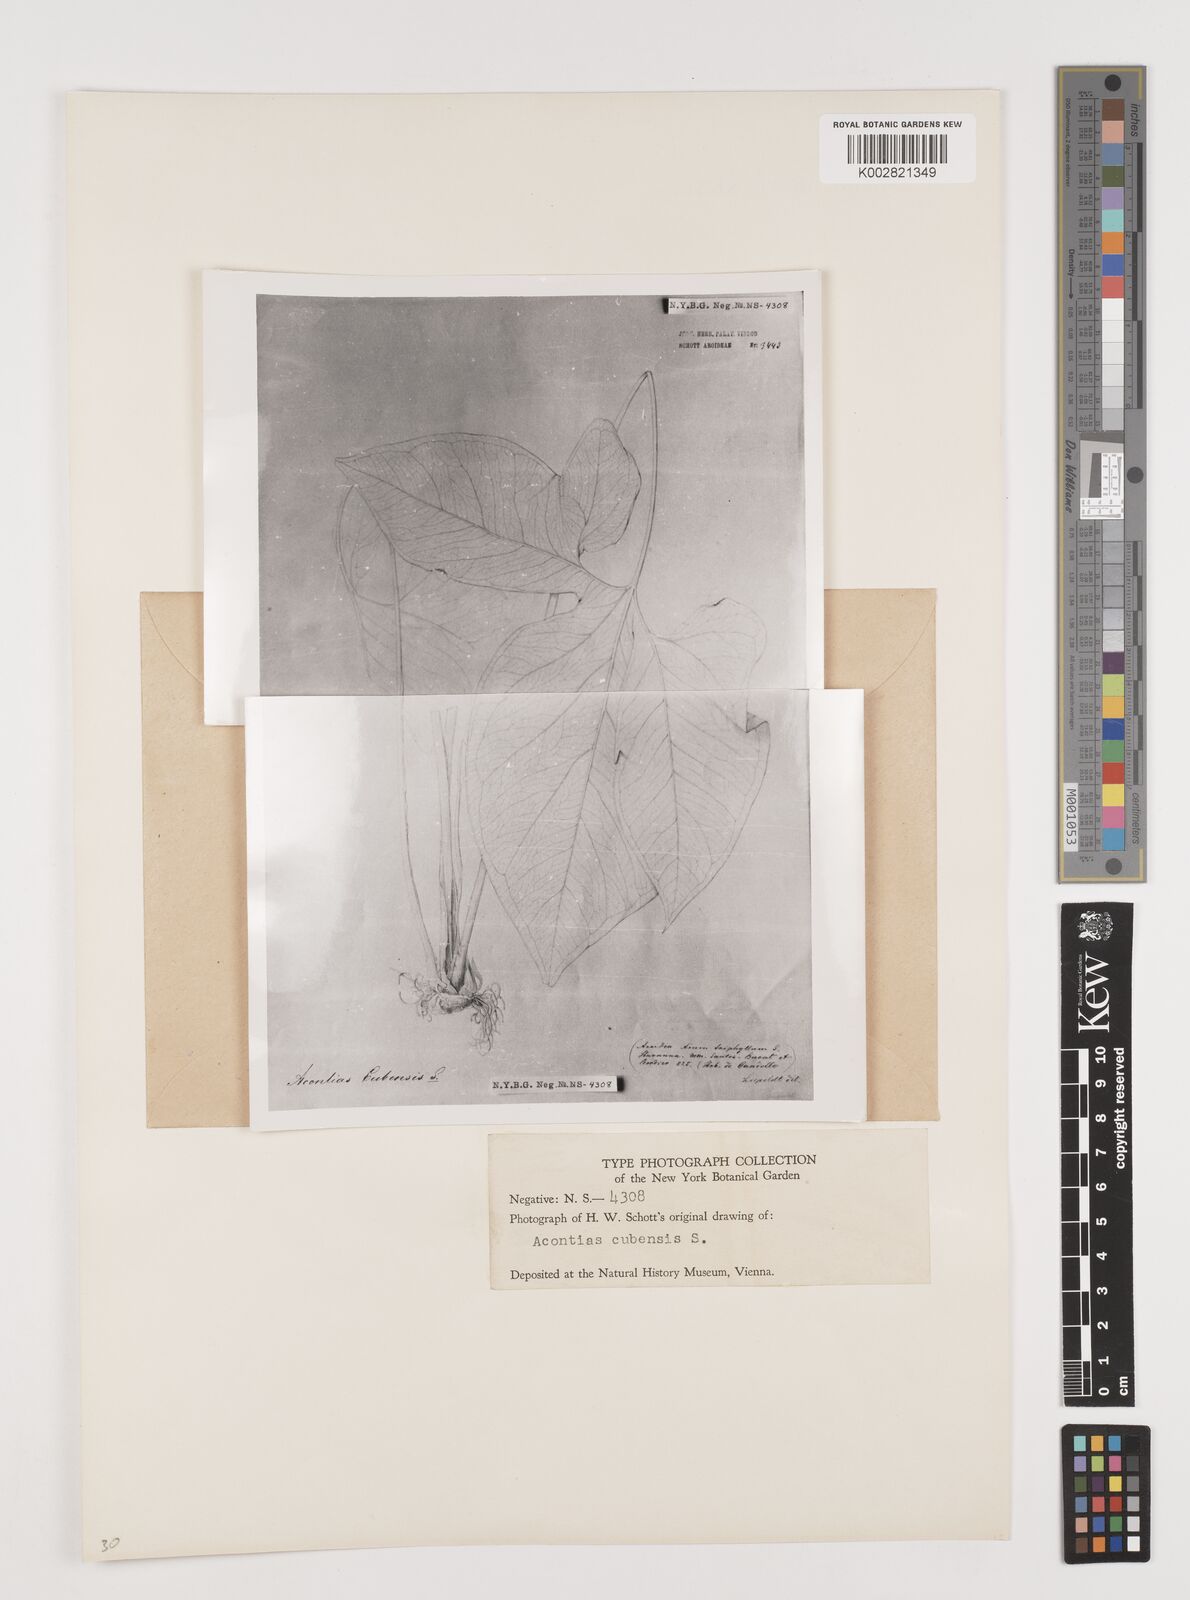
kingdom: Plantae
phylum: Tracheophyta
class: Liliopsida
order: Alismatales
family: Araceae
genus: Xanthosoma
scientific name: Xanthosoma cubense
